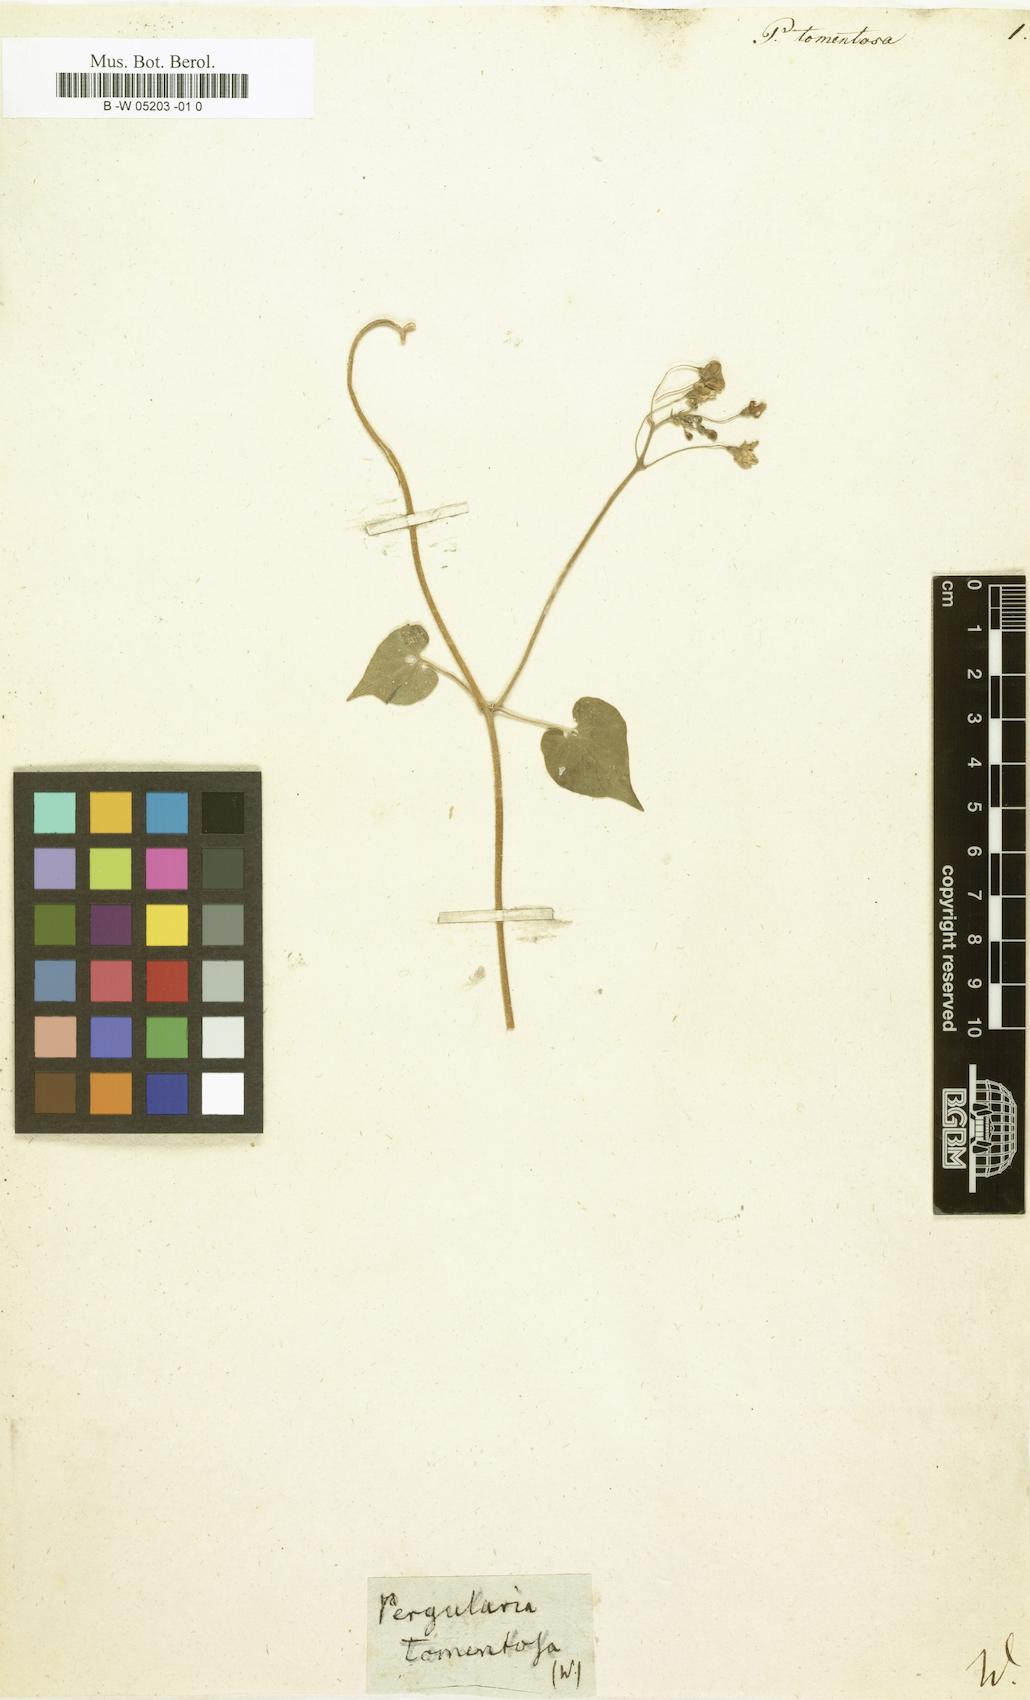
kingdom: Plantae
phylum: Tracheophyta
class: Magnoliopsida
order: Gentianales
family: Apocynaceae
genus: Pergularia
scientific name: Pergularia tomentosa
